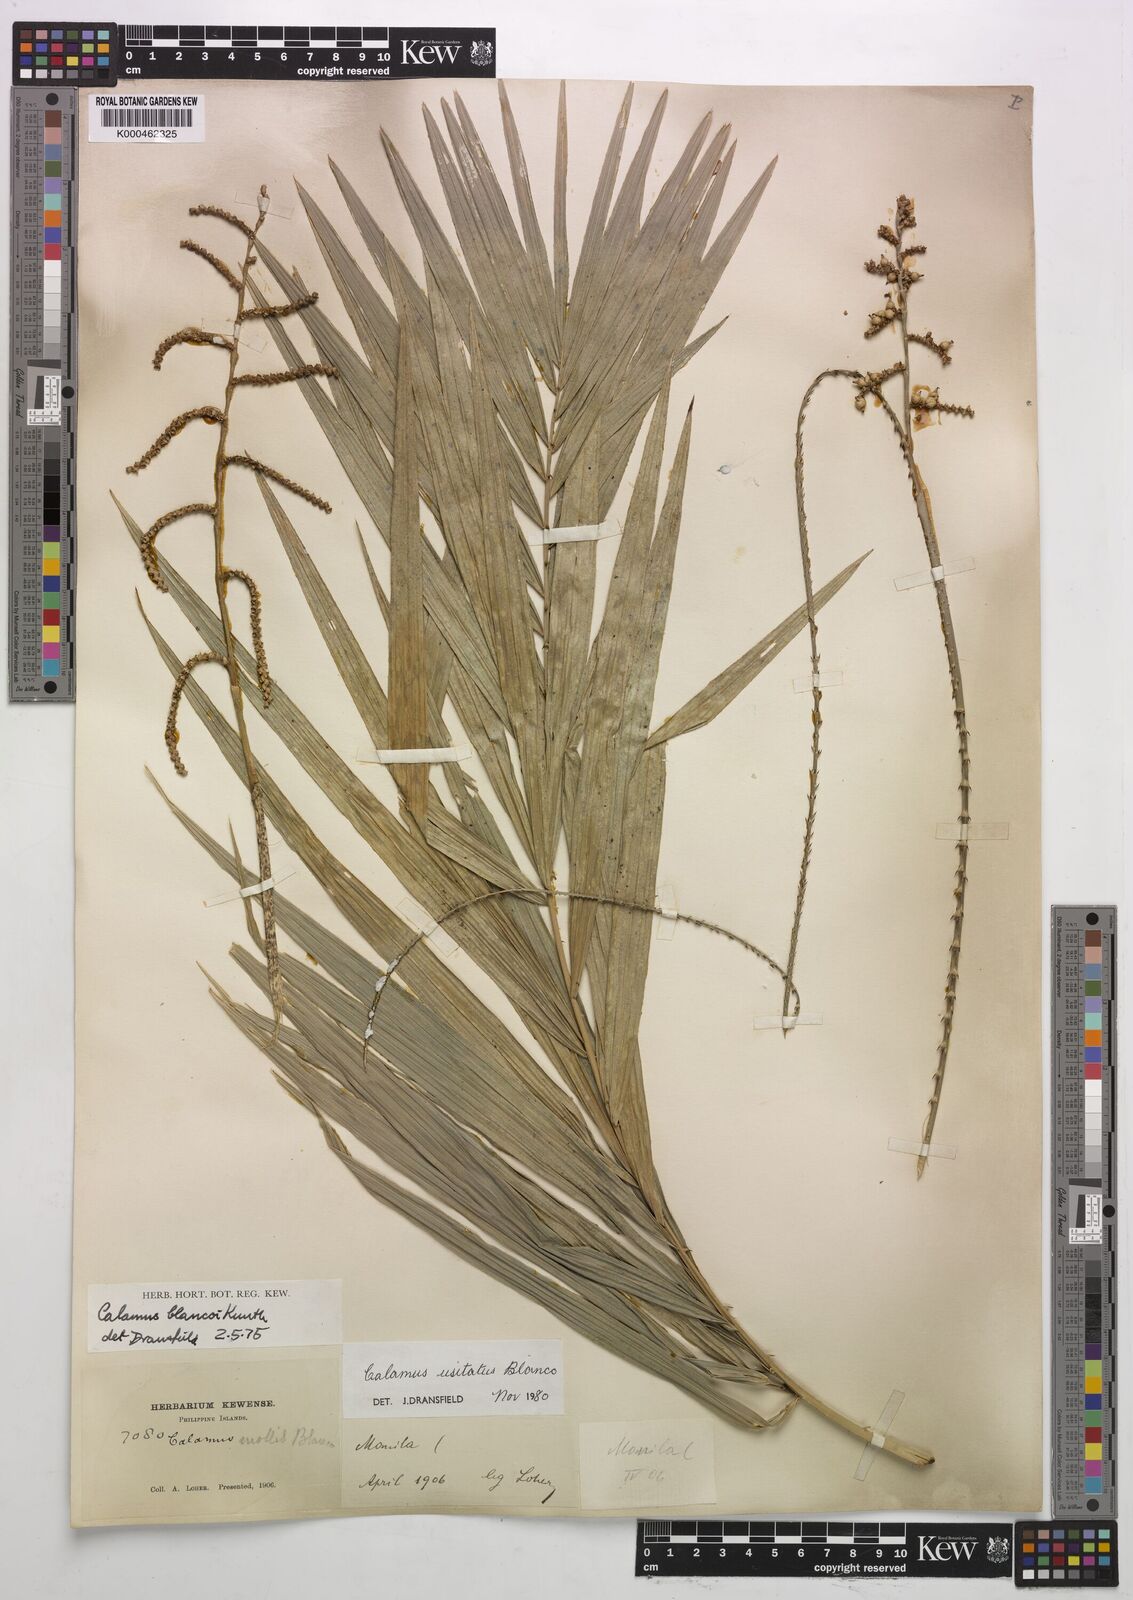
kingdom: Plantae
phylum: Tracheophyta
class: Liliopsida
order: Arecales
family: Arecaceae
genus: Calamus
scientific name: Calamus usitatus
